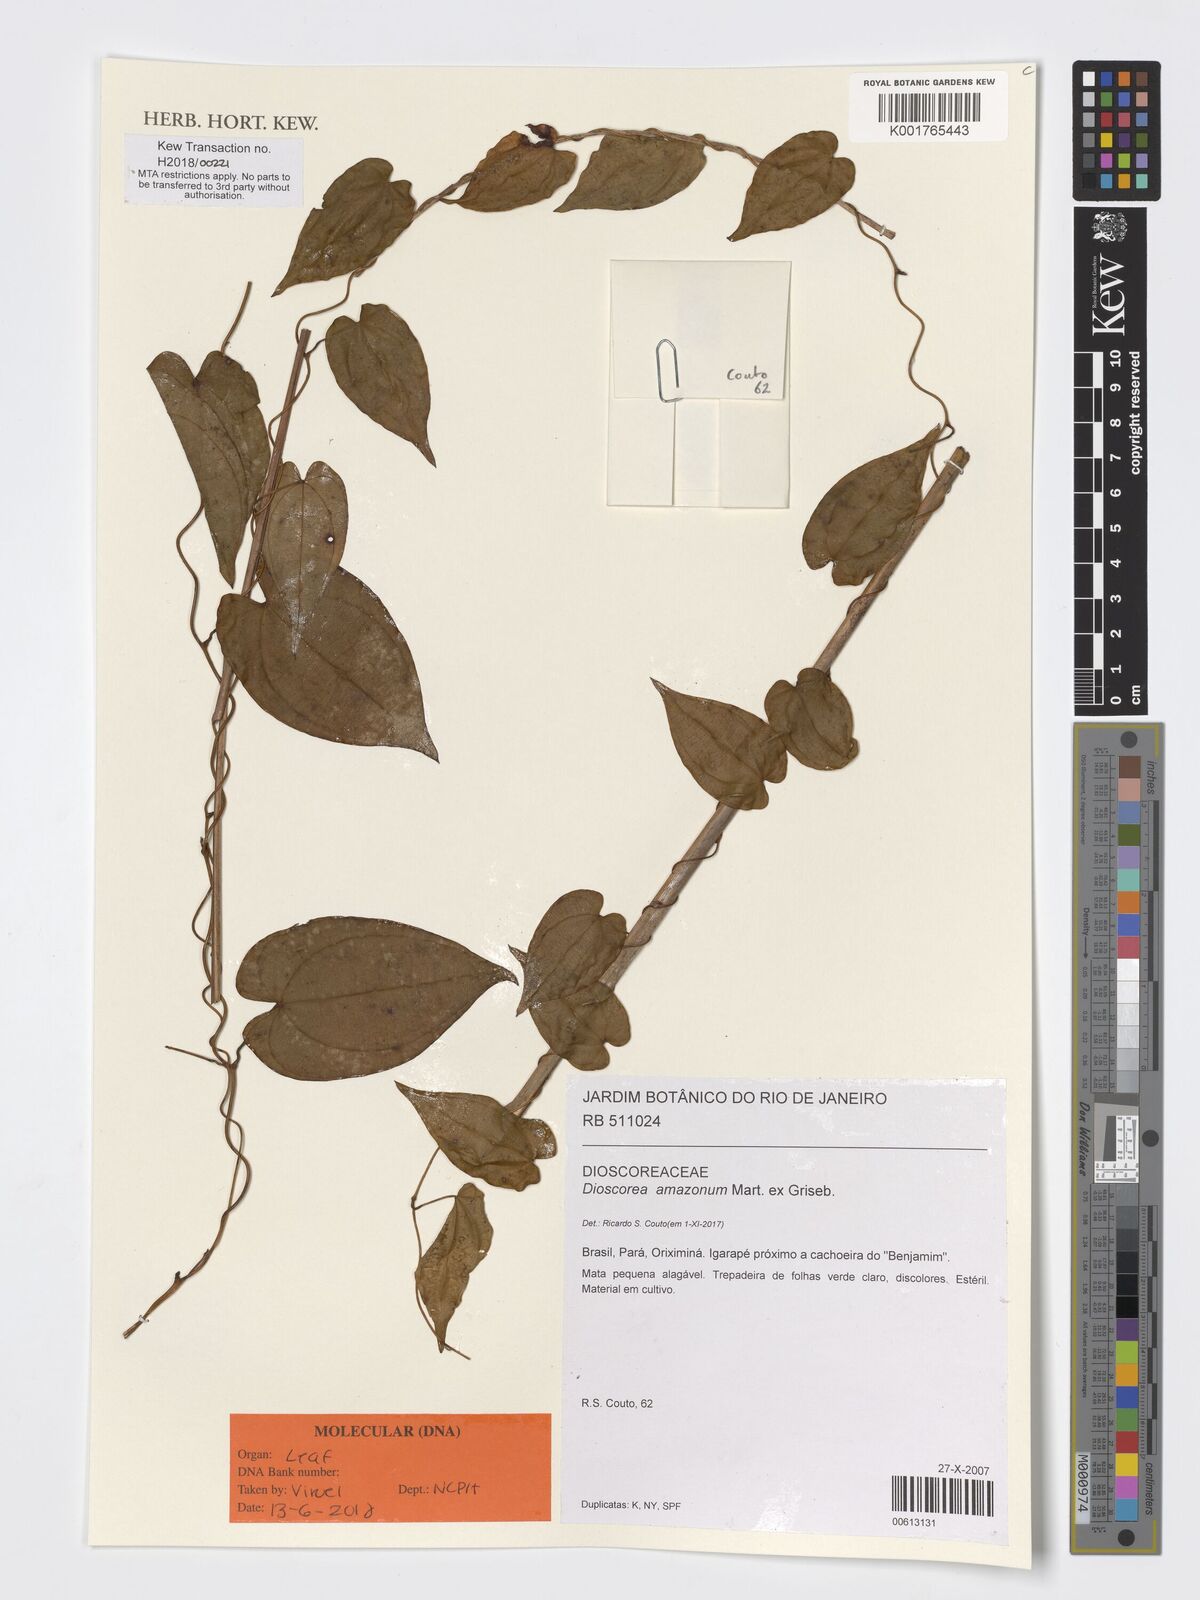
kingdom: Plantae
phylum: Tracheophyta
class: Liliopsida
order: Dioscoreales
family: Dioscoreaceae
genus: Dioscorea
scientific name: Dioscorea amazonum
